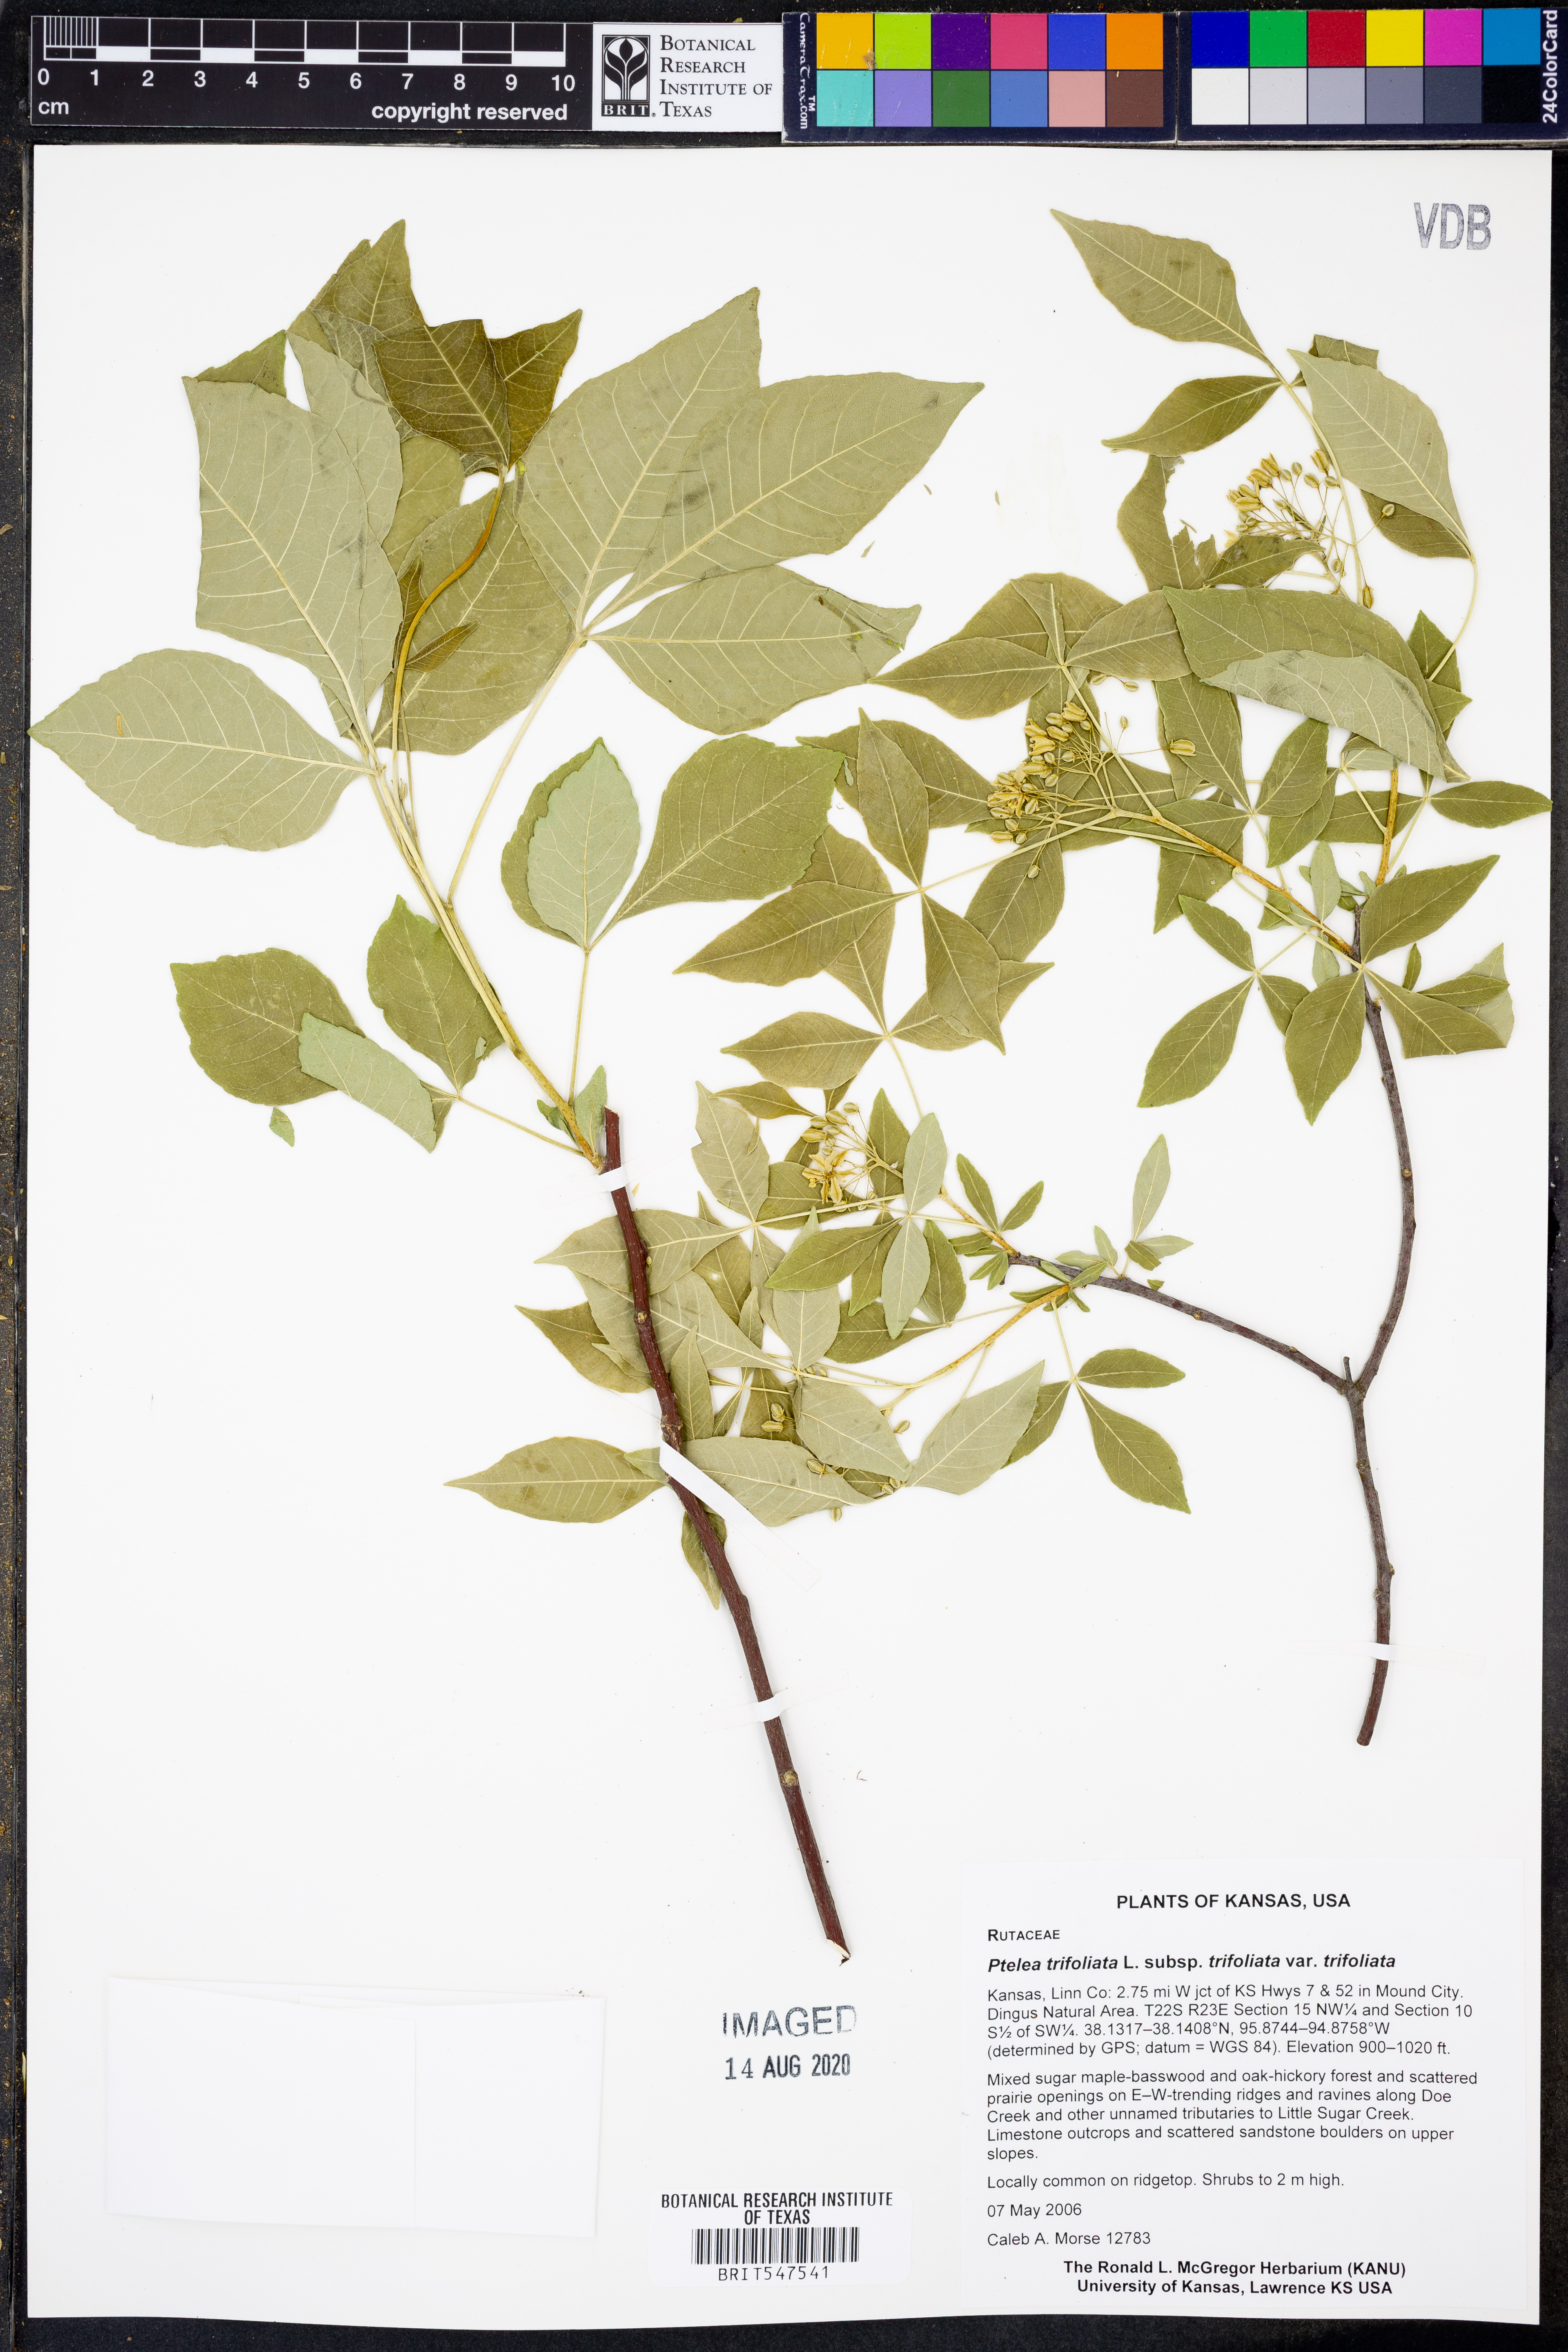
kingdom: Plantae
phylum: Tracheophyta
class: Magnoliopsida
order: Sapindales
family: Rutaceae
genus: Ptelea
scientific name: Ptelea trifoliata
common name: Common hop-tree
